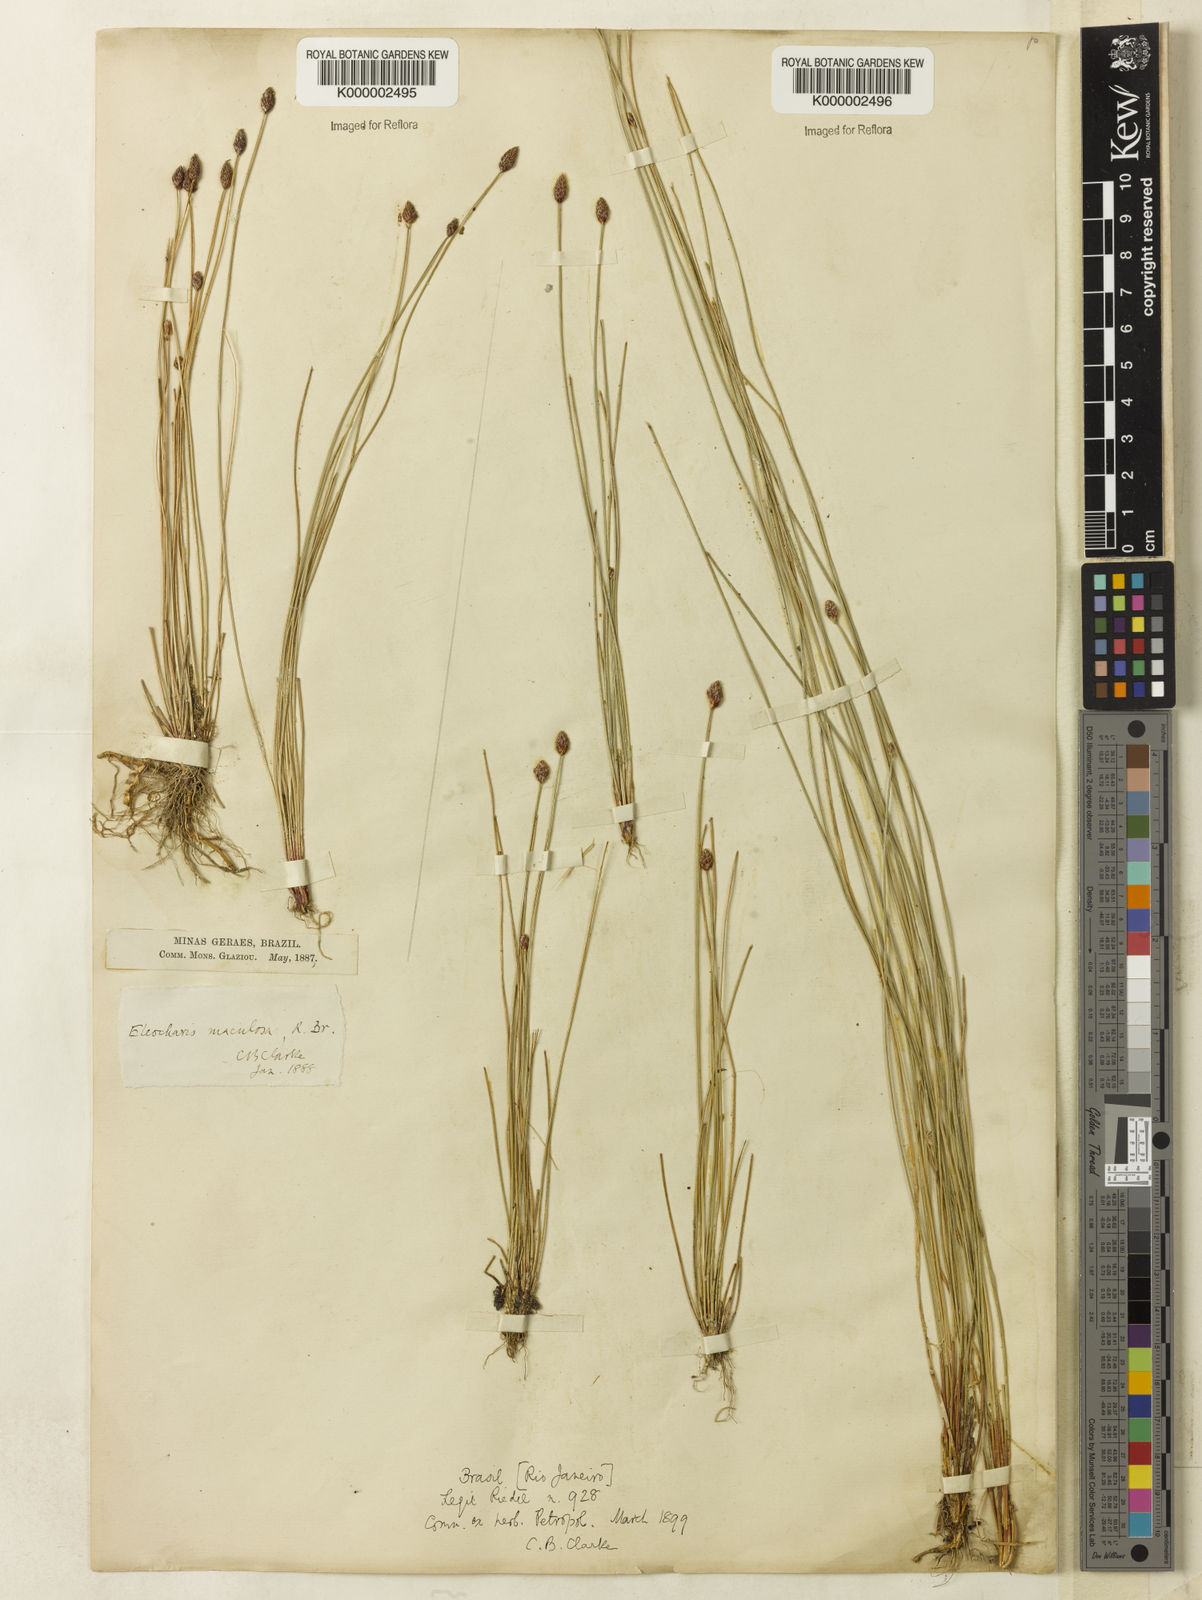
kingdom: Plantae
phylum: Tracheophyta
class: Liliopsida
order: Poales
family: Cyperaceae
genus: Eleocharis
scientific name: Eleocharis maculosa
